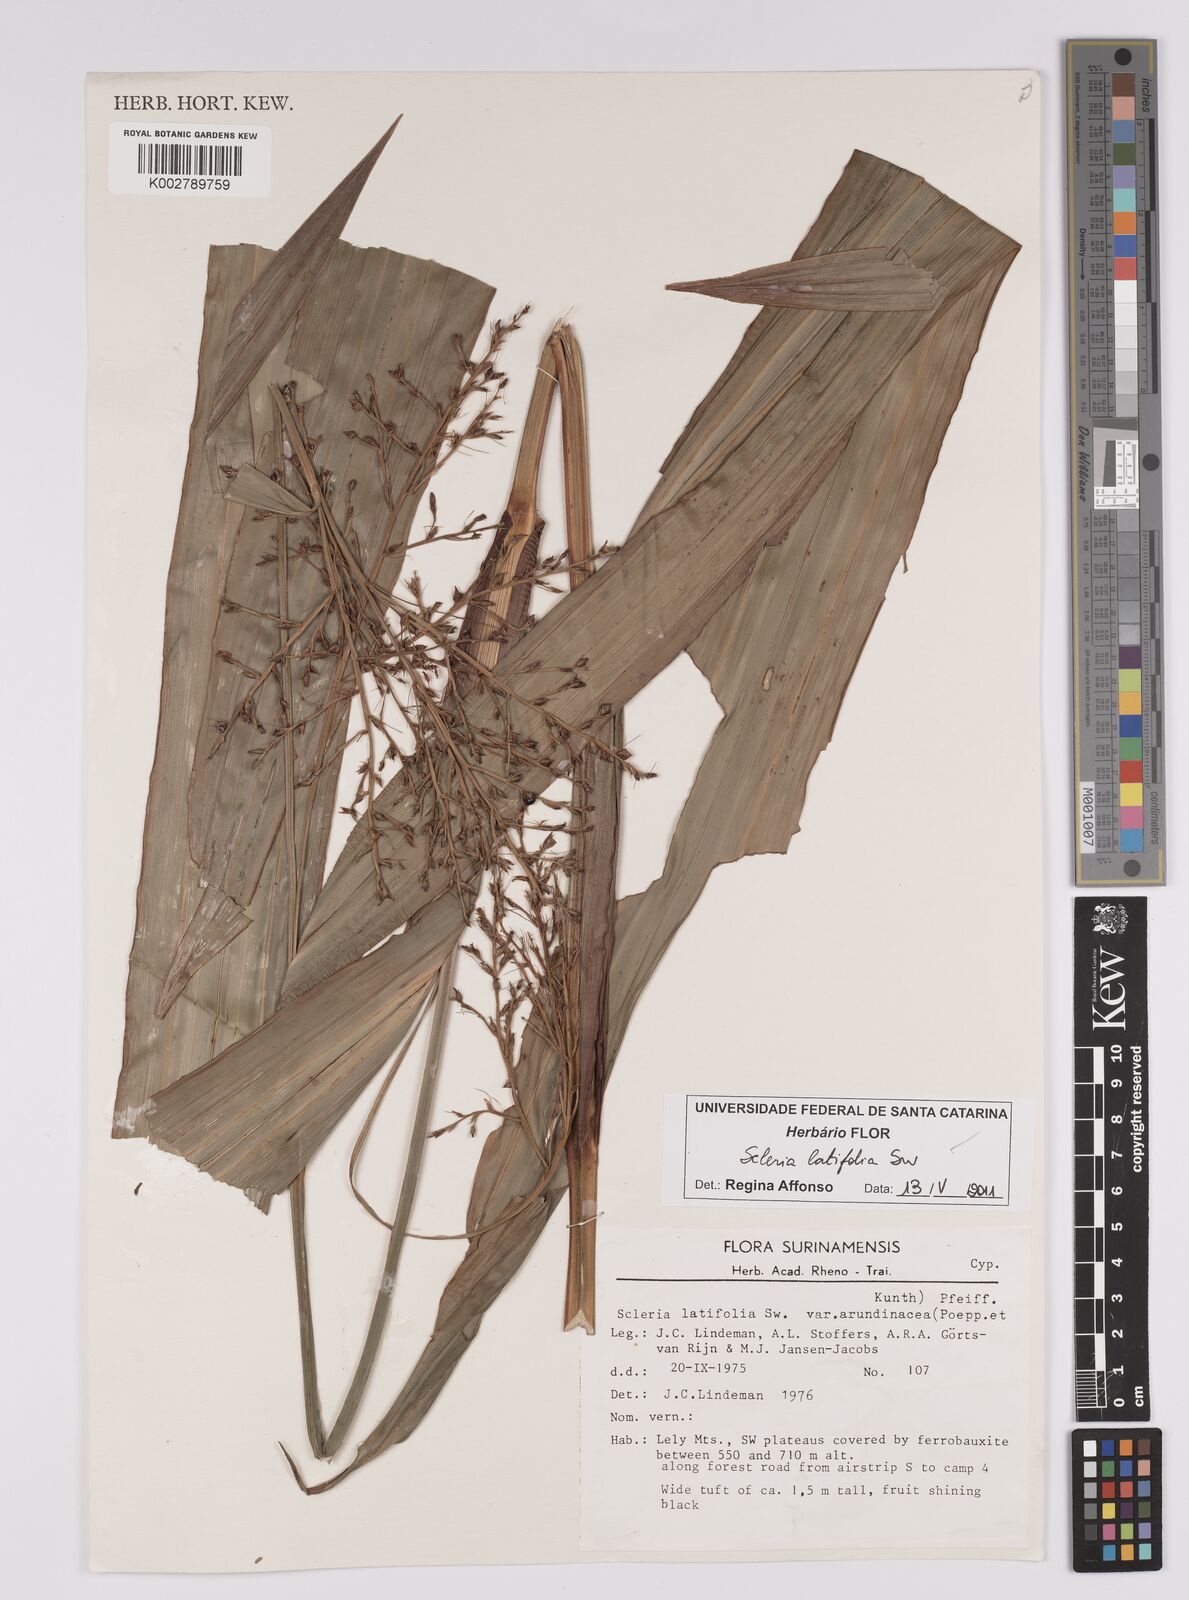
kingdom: Plantae
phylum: Tracheophyta
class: Liliopsida
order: Poales
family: Cyperaceae
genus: Scleria
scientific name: Scleria latifolia
